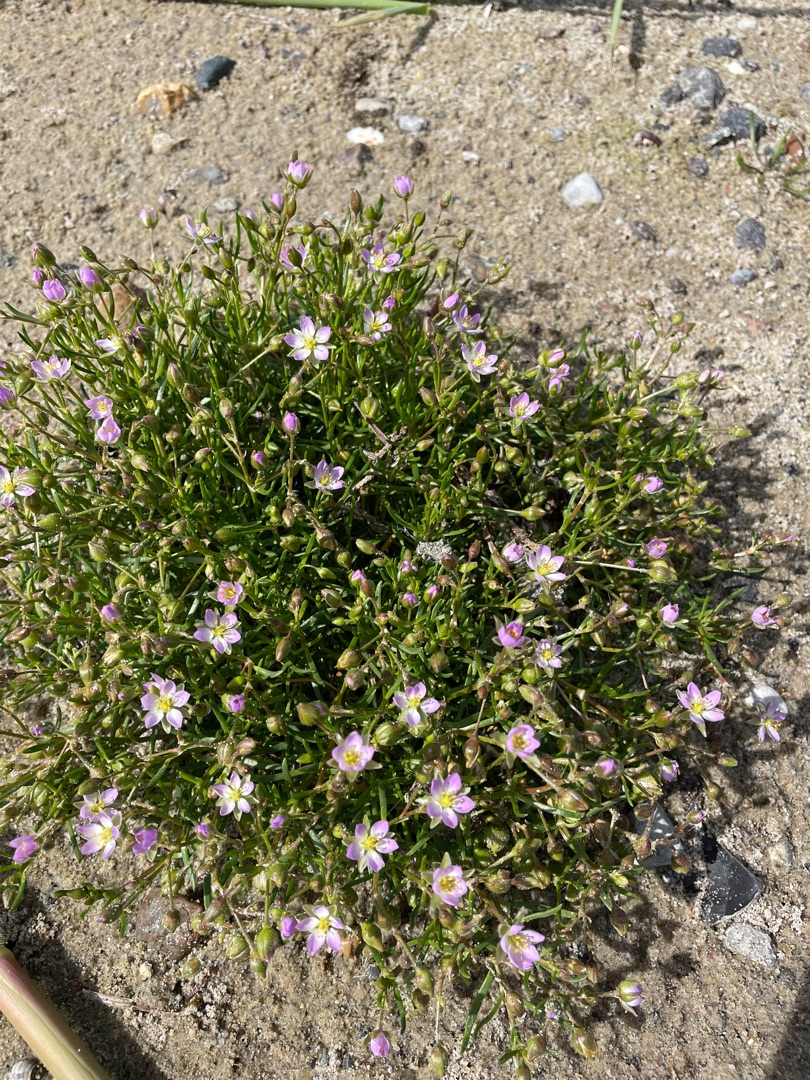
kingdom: Plantae
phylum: Tracheophyta
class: Magnoliopsida
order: Caryophyllales
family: Caryophyllaceae
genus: Spergularia
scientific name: Spergularia marina
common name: Kødet hindeknæ
